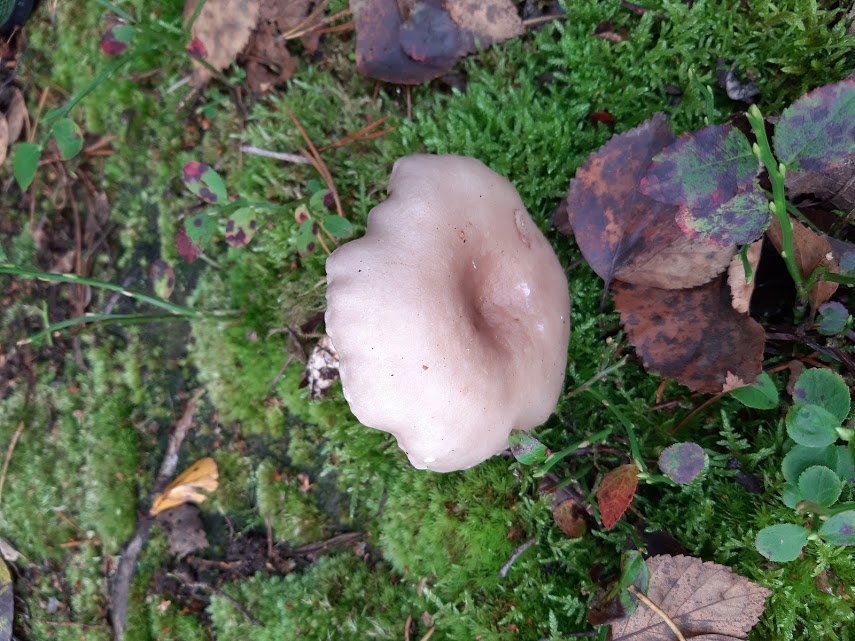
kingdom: Fungi
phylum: Basidiomycota
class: Agaricomycetes
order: Russulales
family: Russulaceae
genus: Lactarius
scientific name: Lactarius vietus
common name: violetgrå mælkehat
